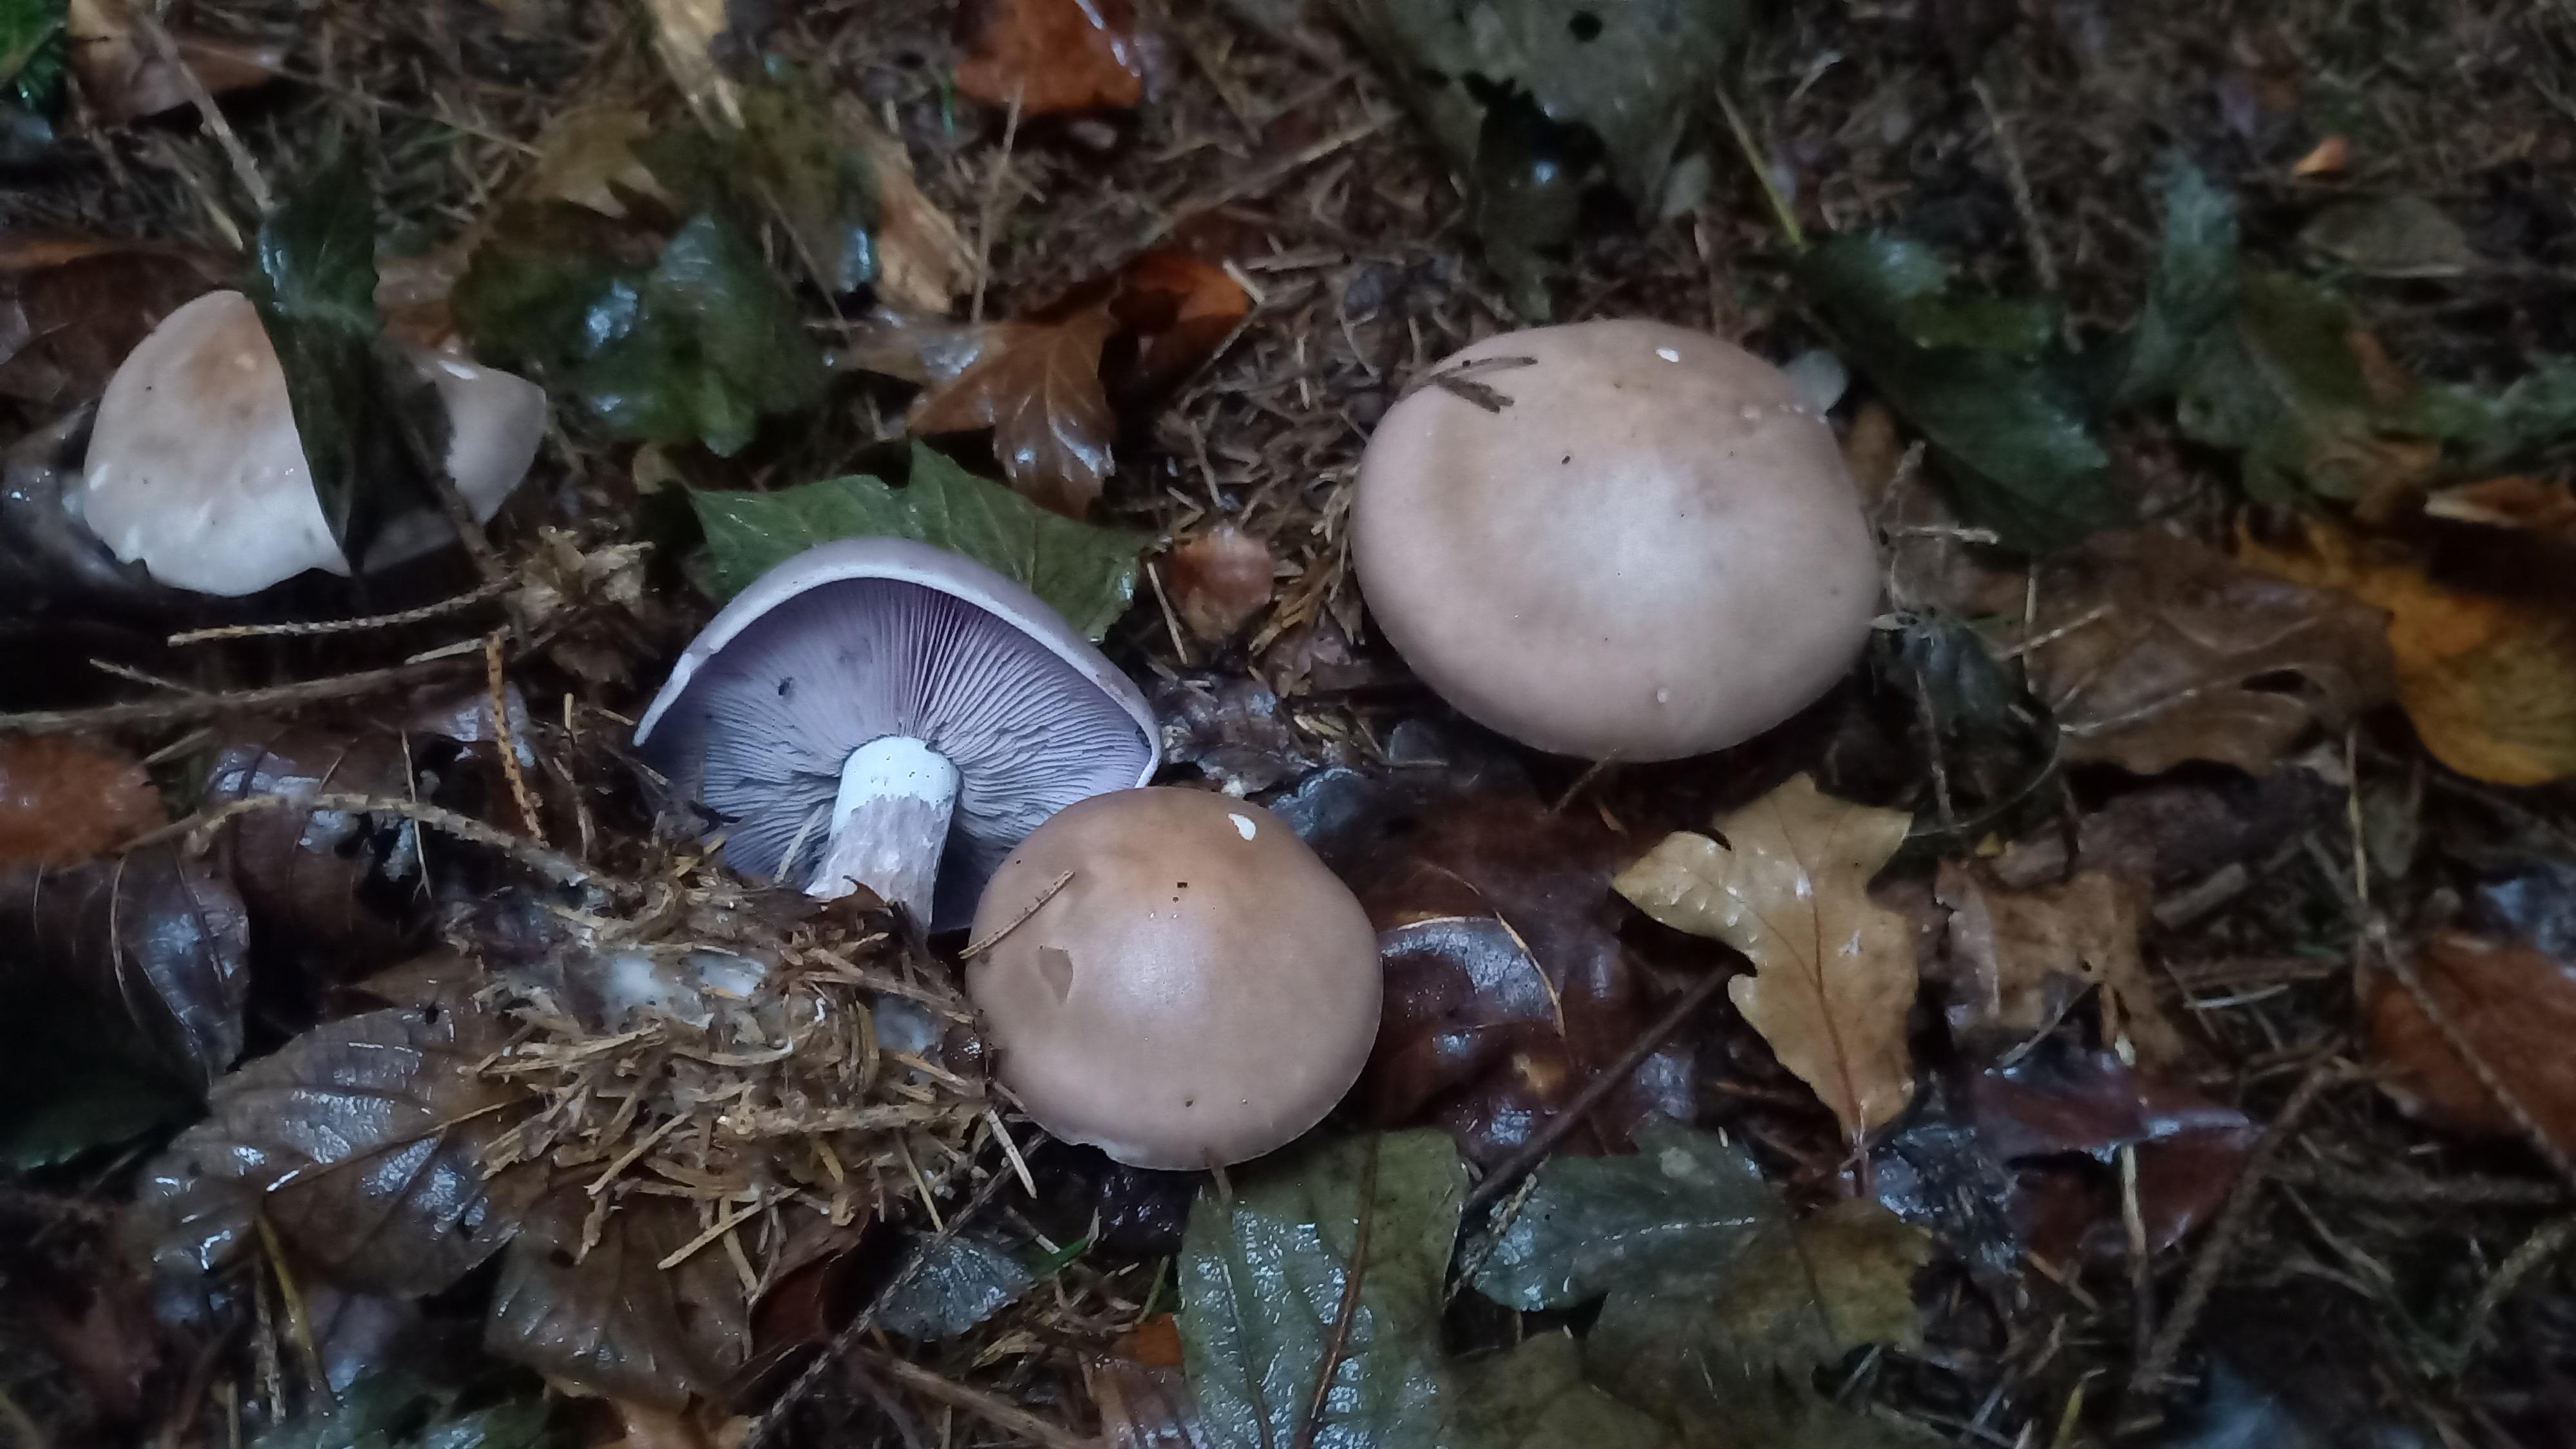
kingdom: Fungi
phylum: Basidiomycota
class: Agaricomycetes
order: Agaricales
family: Tricholomataceae
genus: Lepista
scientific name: Lepista nuda
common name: violet hekseringshat
